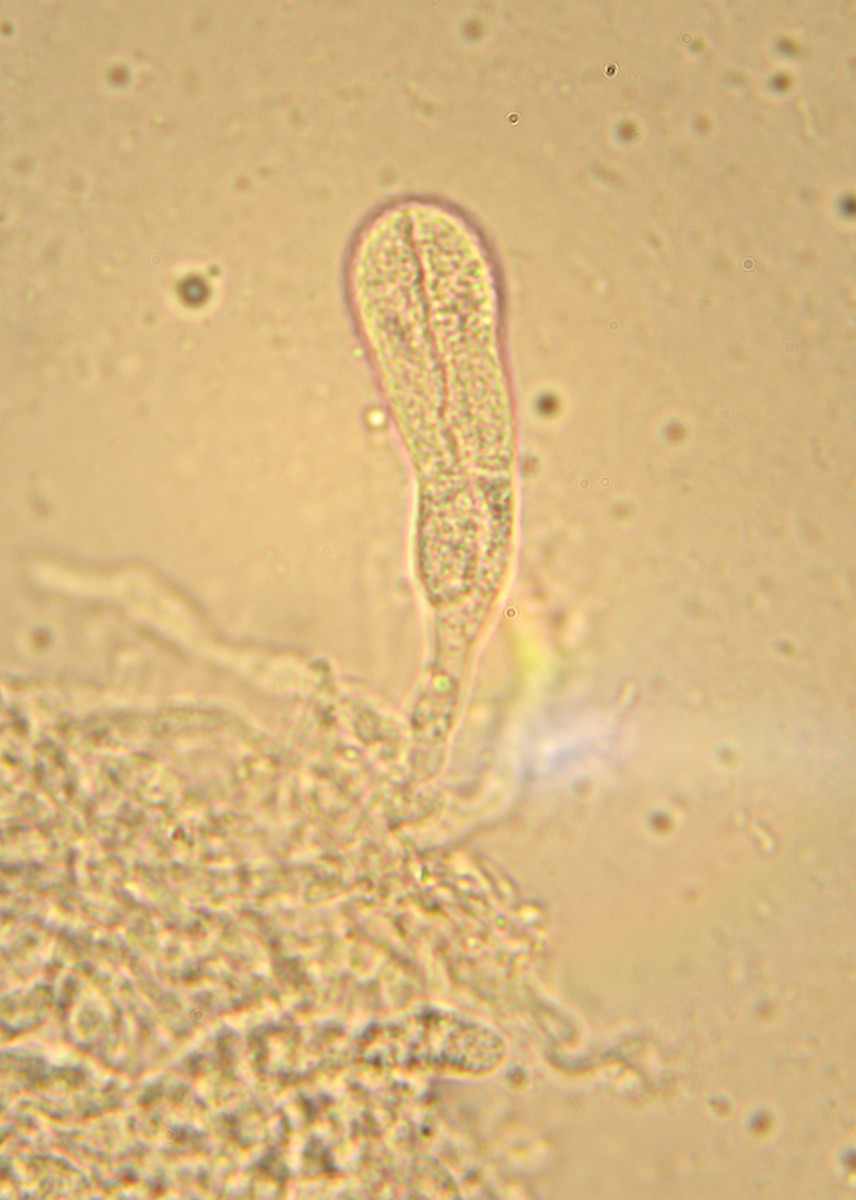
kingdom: Fungi
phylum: Basidiomycota
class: Agaricomycetes
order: Auriculariales
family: Auriculariaceae
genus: Heteroradulum
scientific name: Heteroradulum deglubens
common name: bævreskorpe
